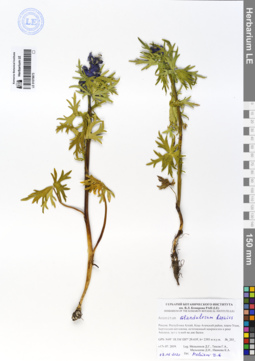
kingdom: Plantae
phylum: Tracheophyta
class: Magnoliopsida
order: Ranunculales
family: Ranunculaceae
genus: Aconitum
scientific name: Aconitum glandulosum
